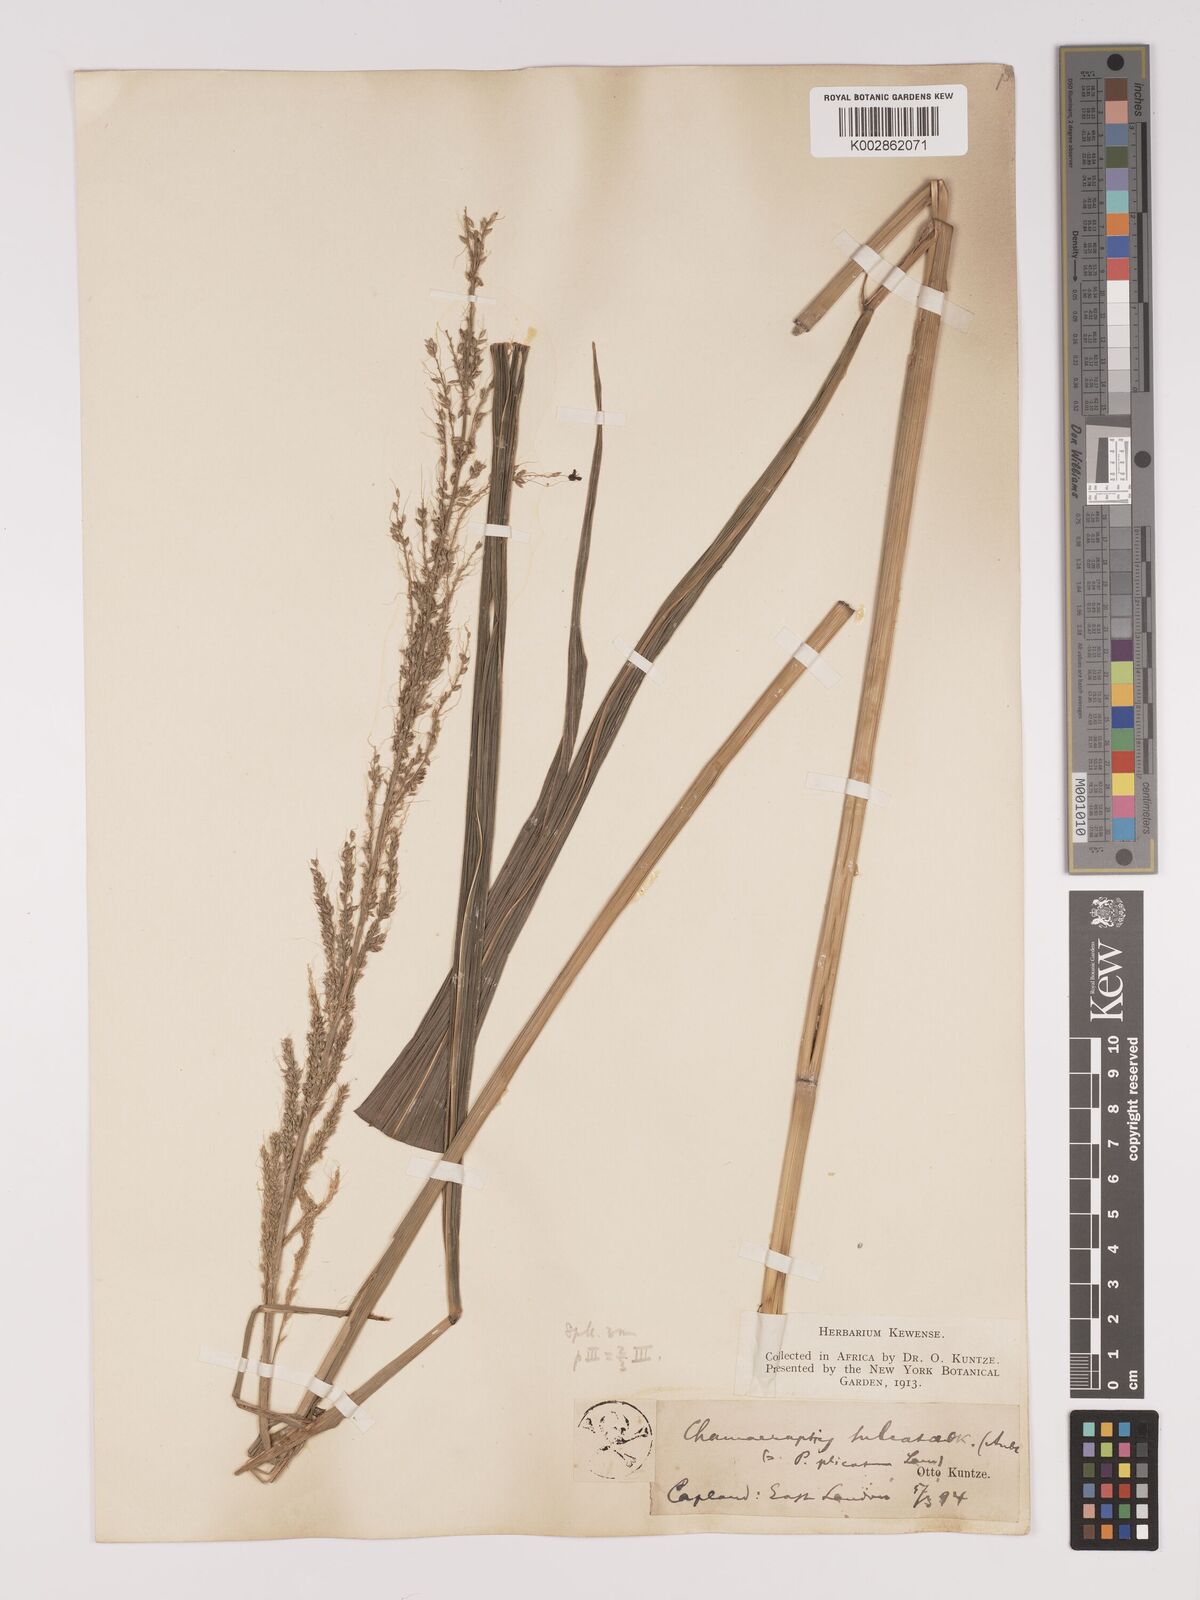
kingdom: Plantae
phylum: Tracheophyta
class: Liliopsida
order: Poales
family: Poaceae
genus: Setaria
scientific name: Setaria megaphylla
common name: Bigleaf bristlegrass
